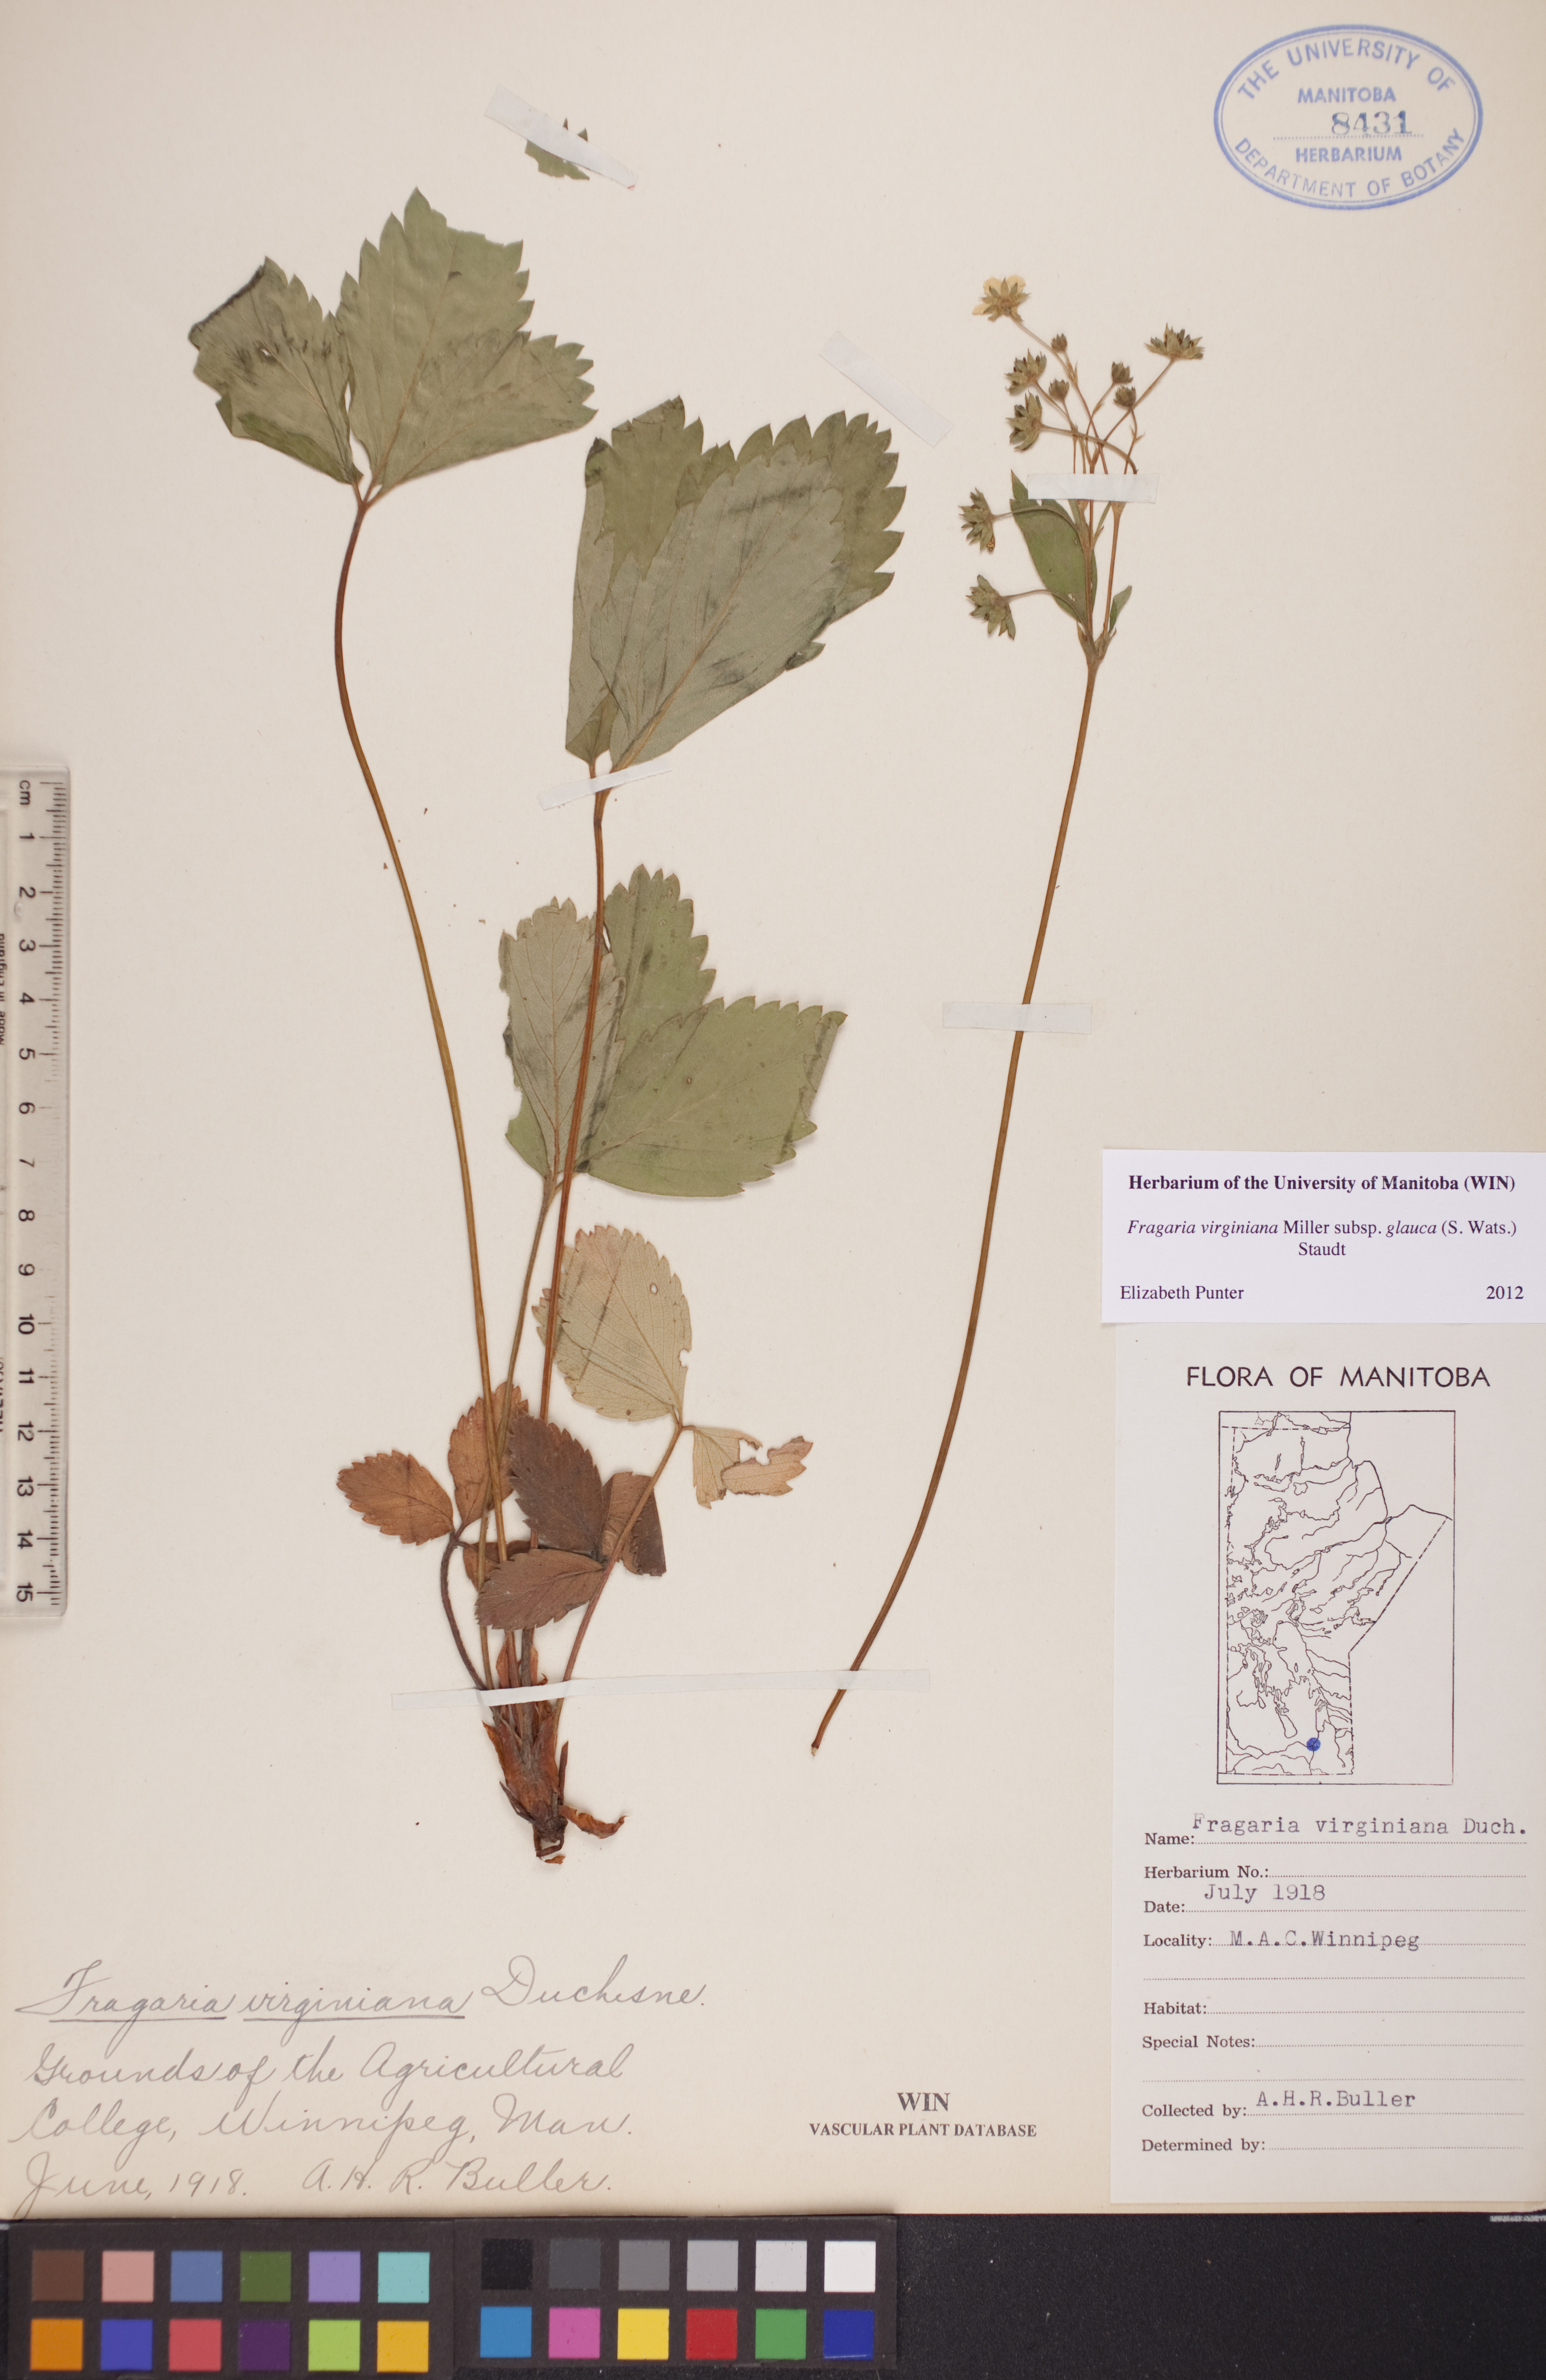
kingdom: Plantae
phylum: Tracheophyta
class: Magnoliopsida
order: Rosales
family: Rosaceae
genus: Fragaria
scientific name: Fragaria virginiana
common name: Thickleaved wild strawberry
